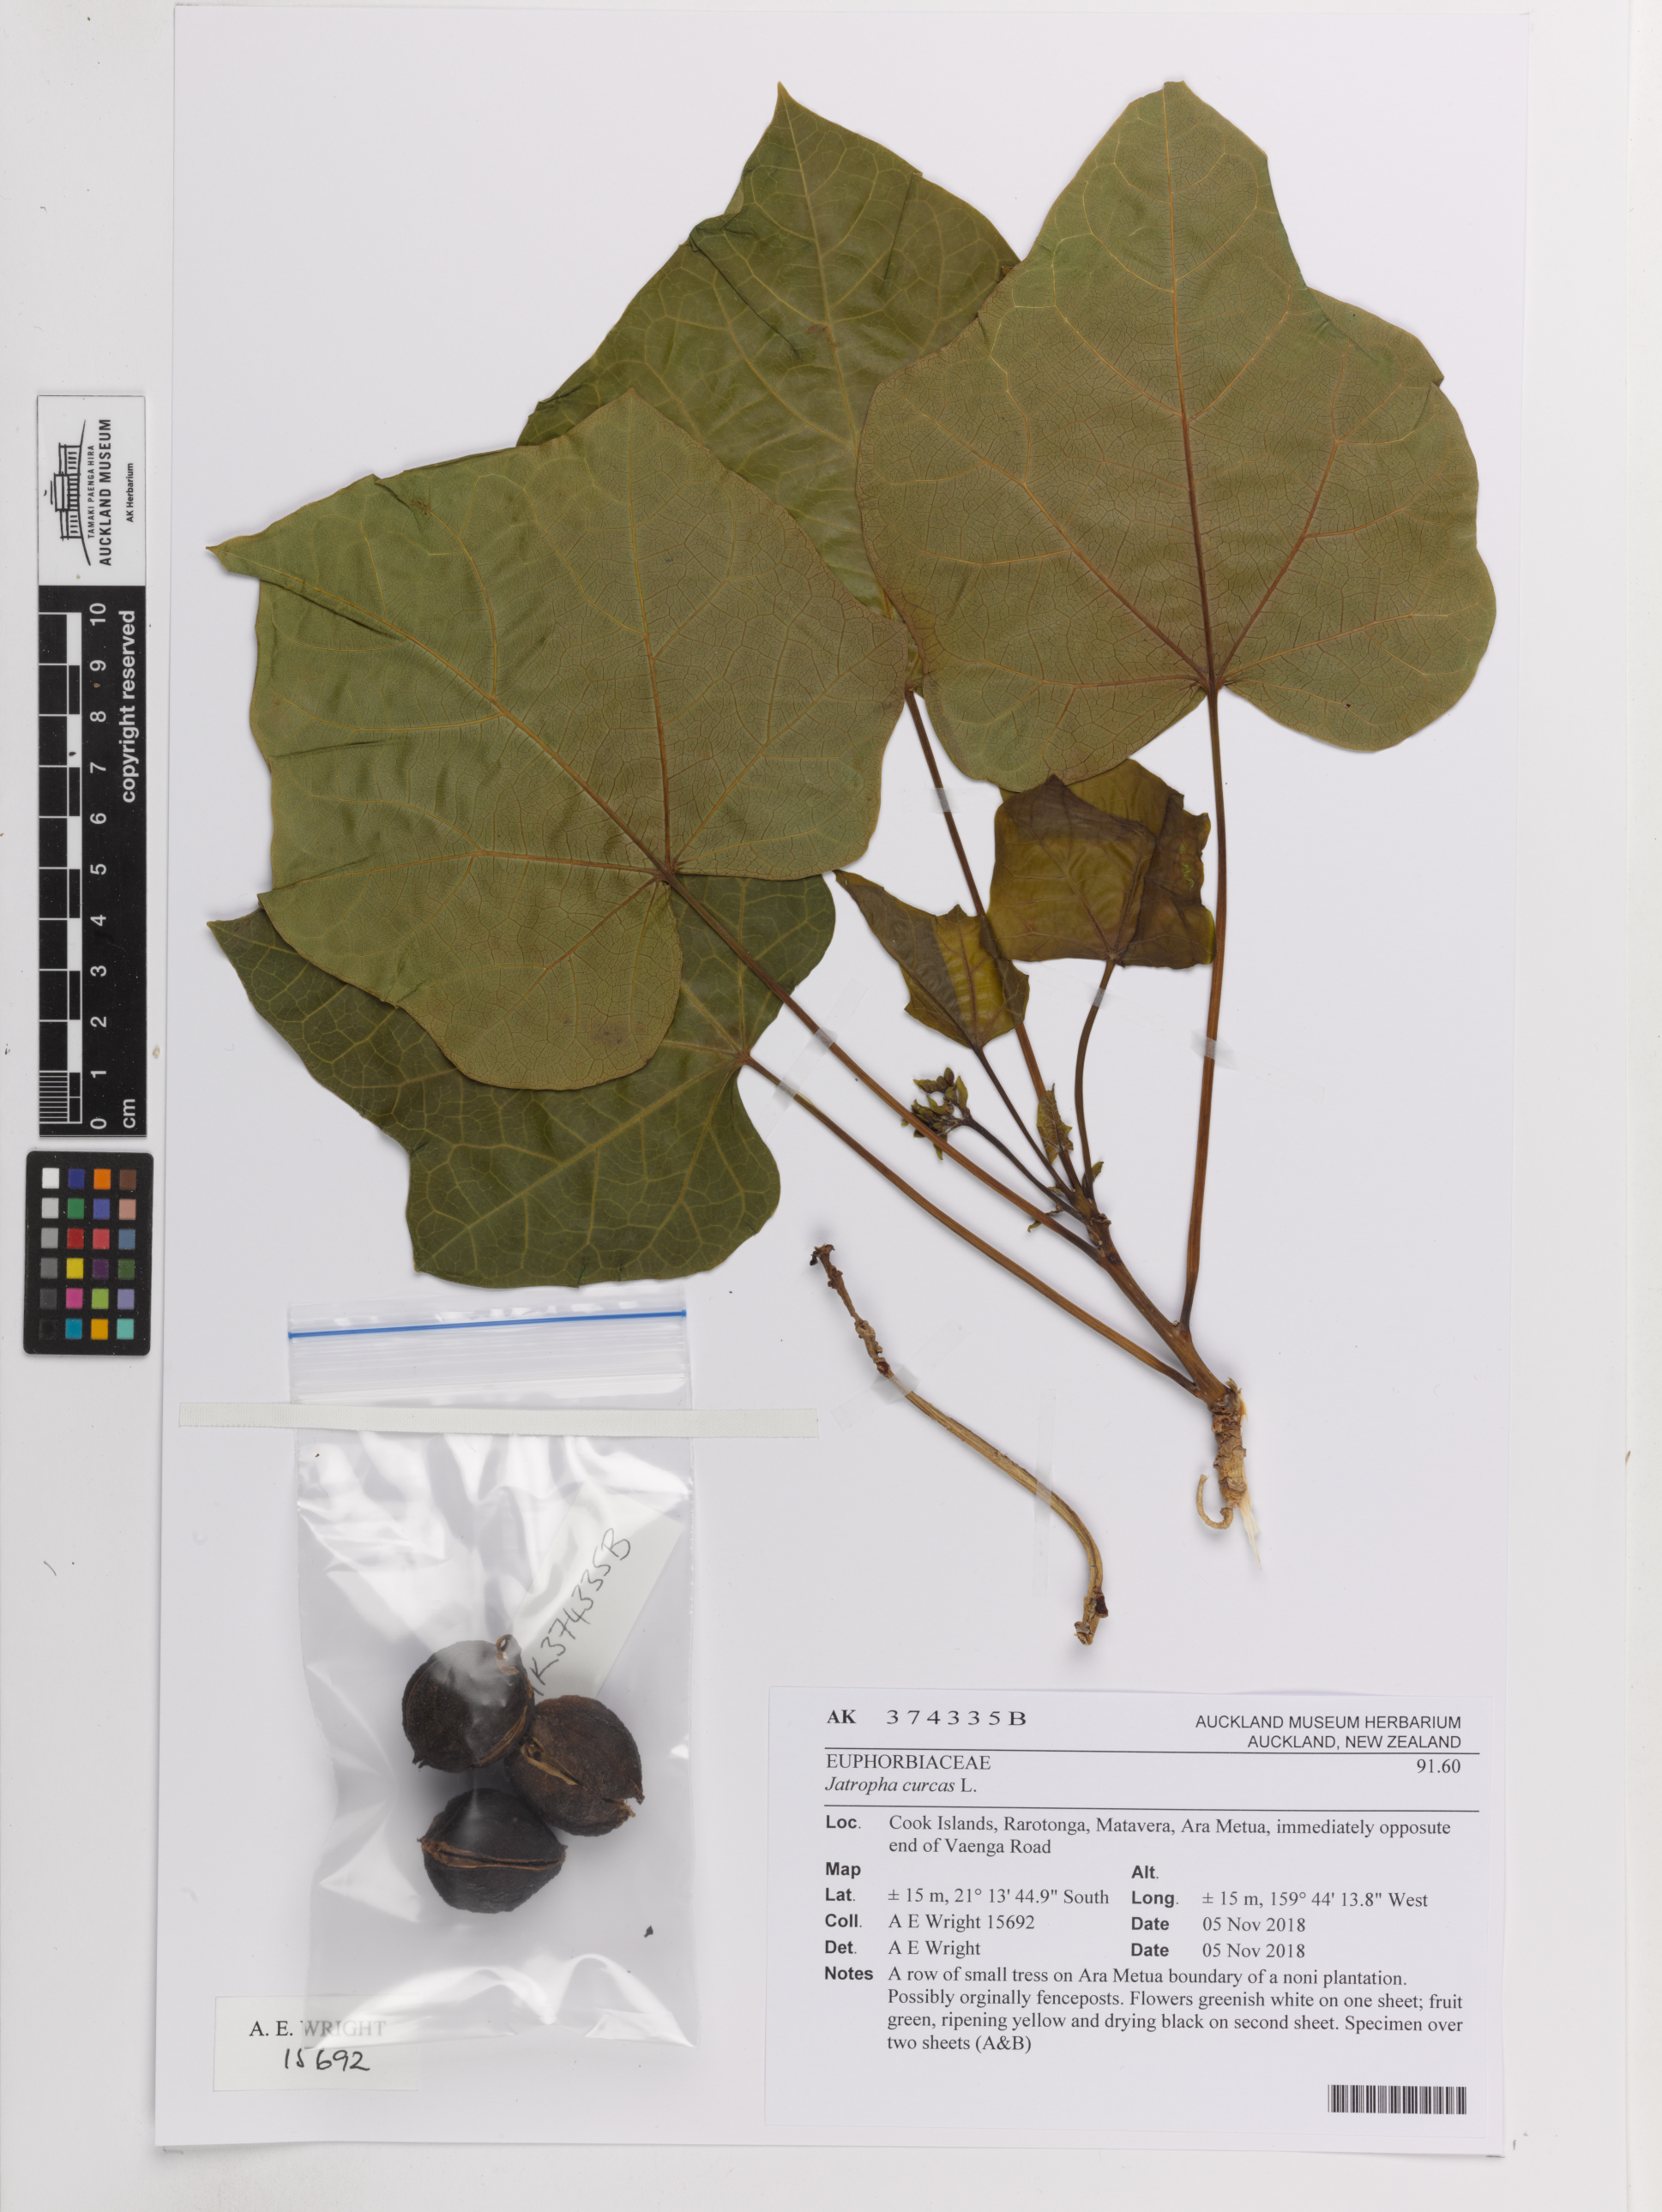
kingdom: Plantae
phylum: Tracheophyta
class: Magnoliopsida
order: Malpighiales
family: Euphorbiaceae
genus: Jatropha
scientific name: Jatropha curcas
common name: Barbados nut
